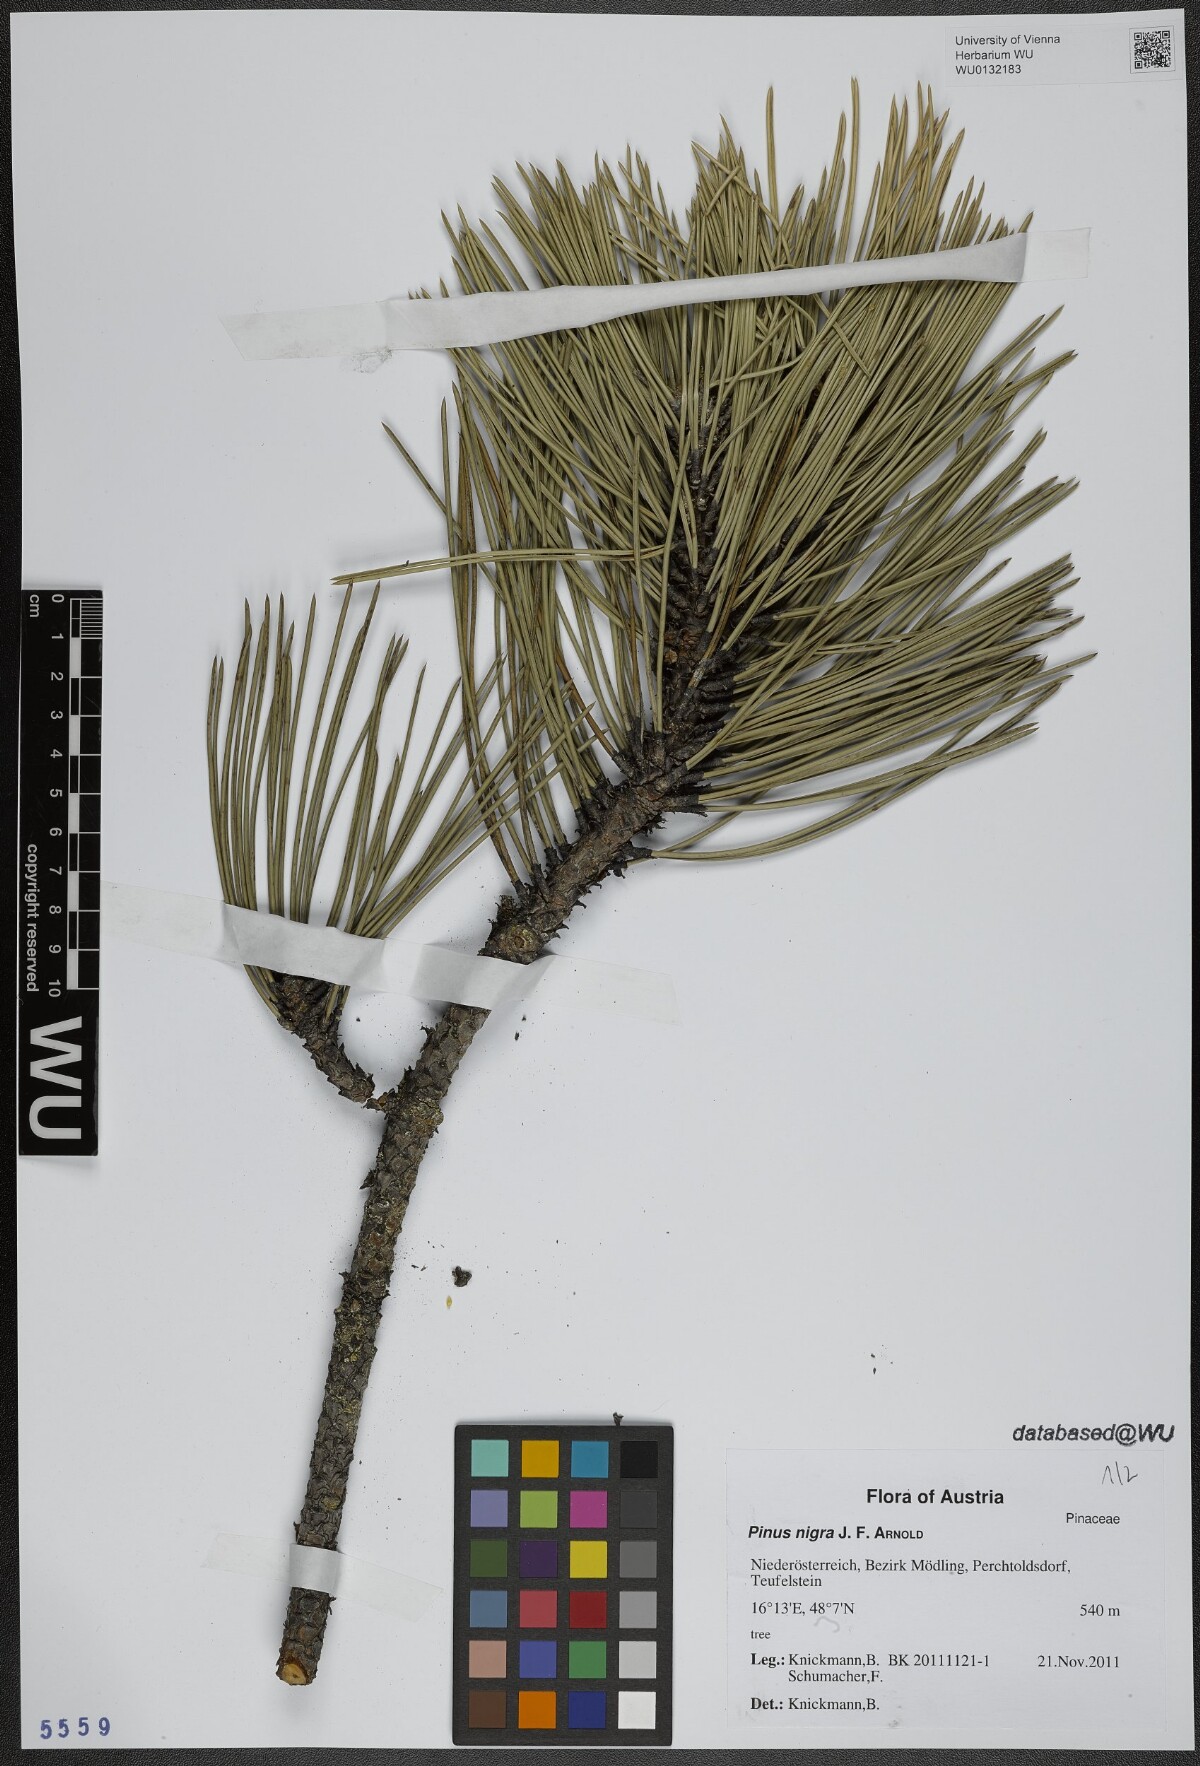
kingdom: Plantae
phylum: Tracheophyta
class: Pinopsida
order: Pinales
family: Pinaceae
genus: Pinus
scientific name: Pinus nigra
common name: Austrian pine
